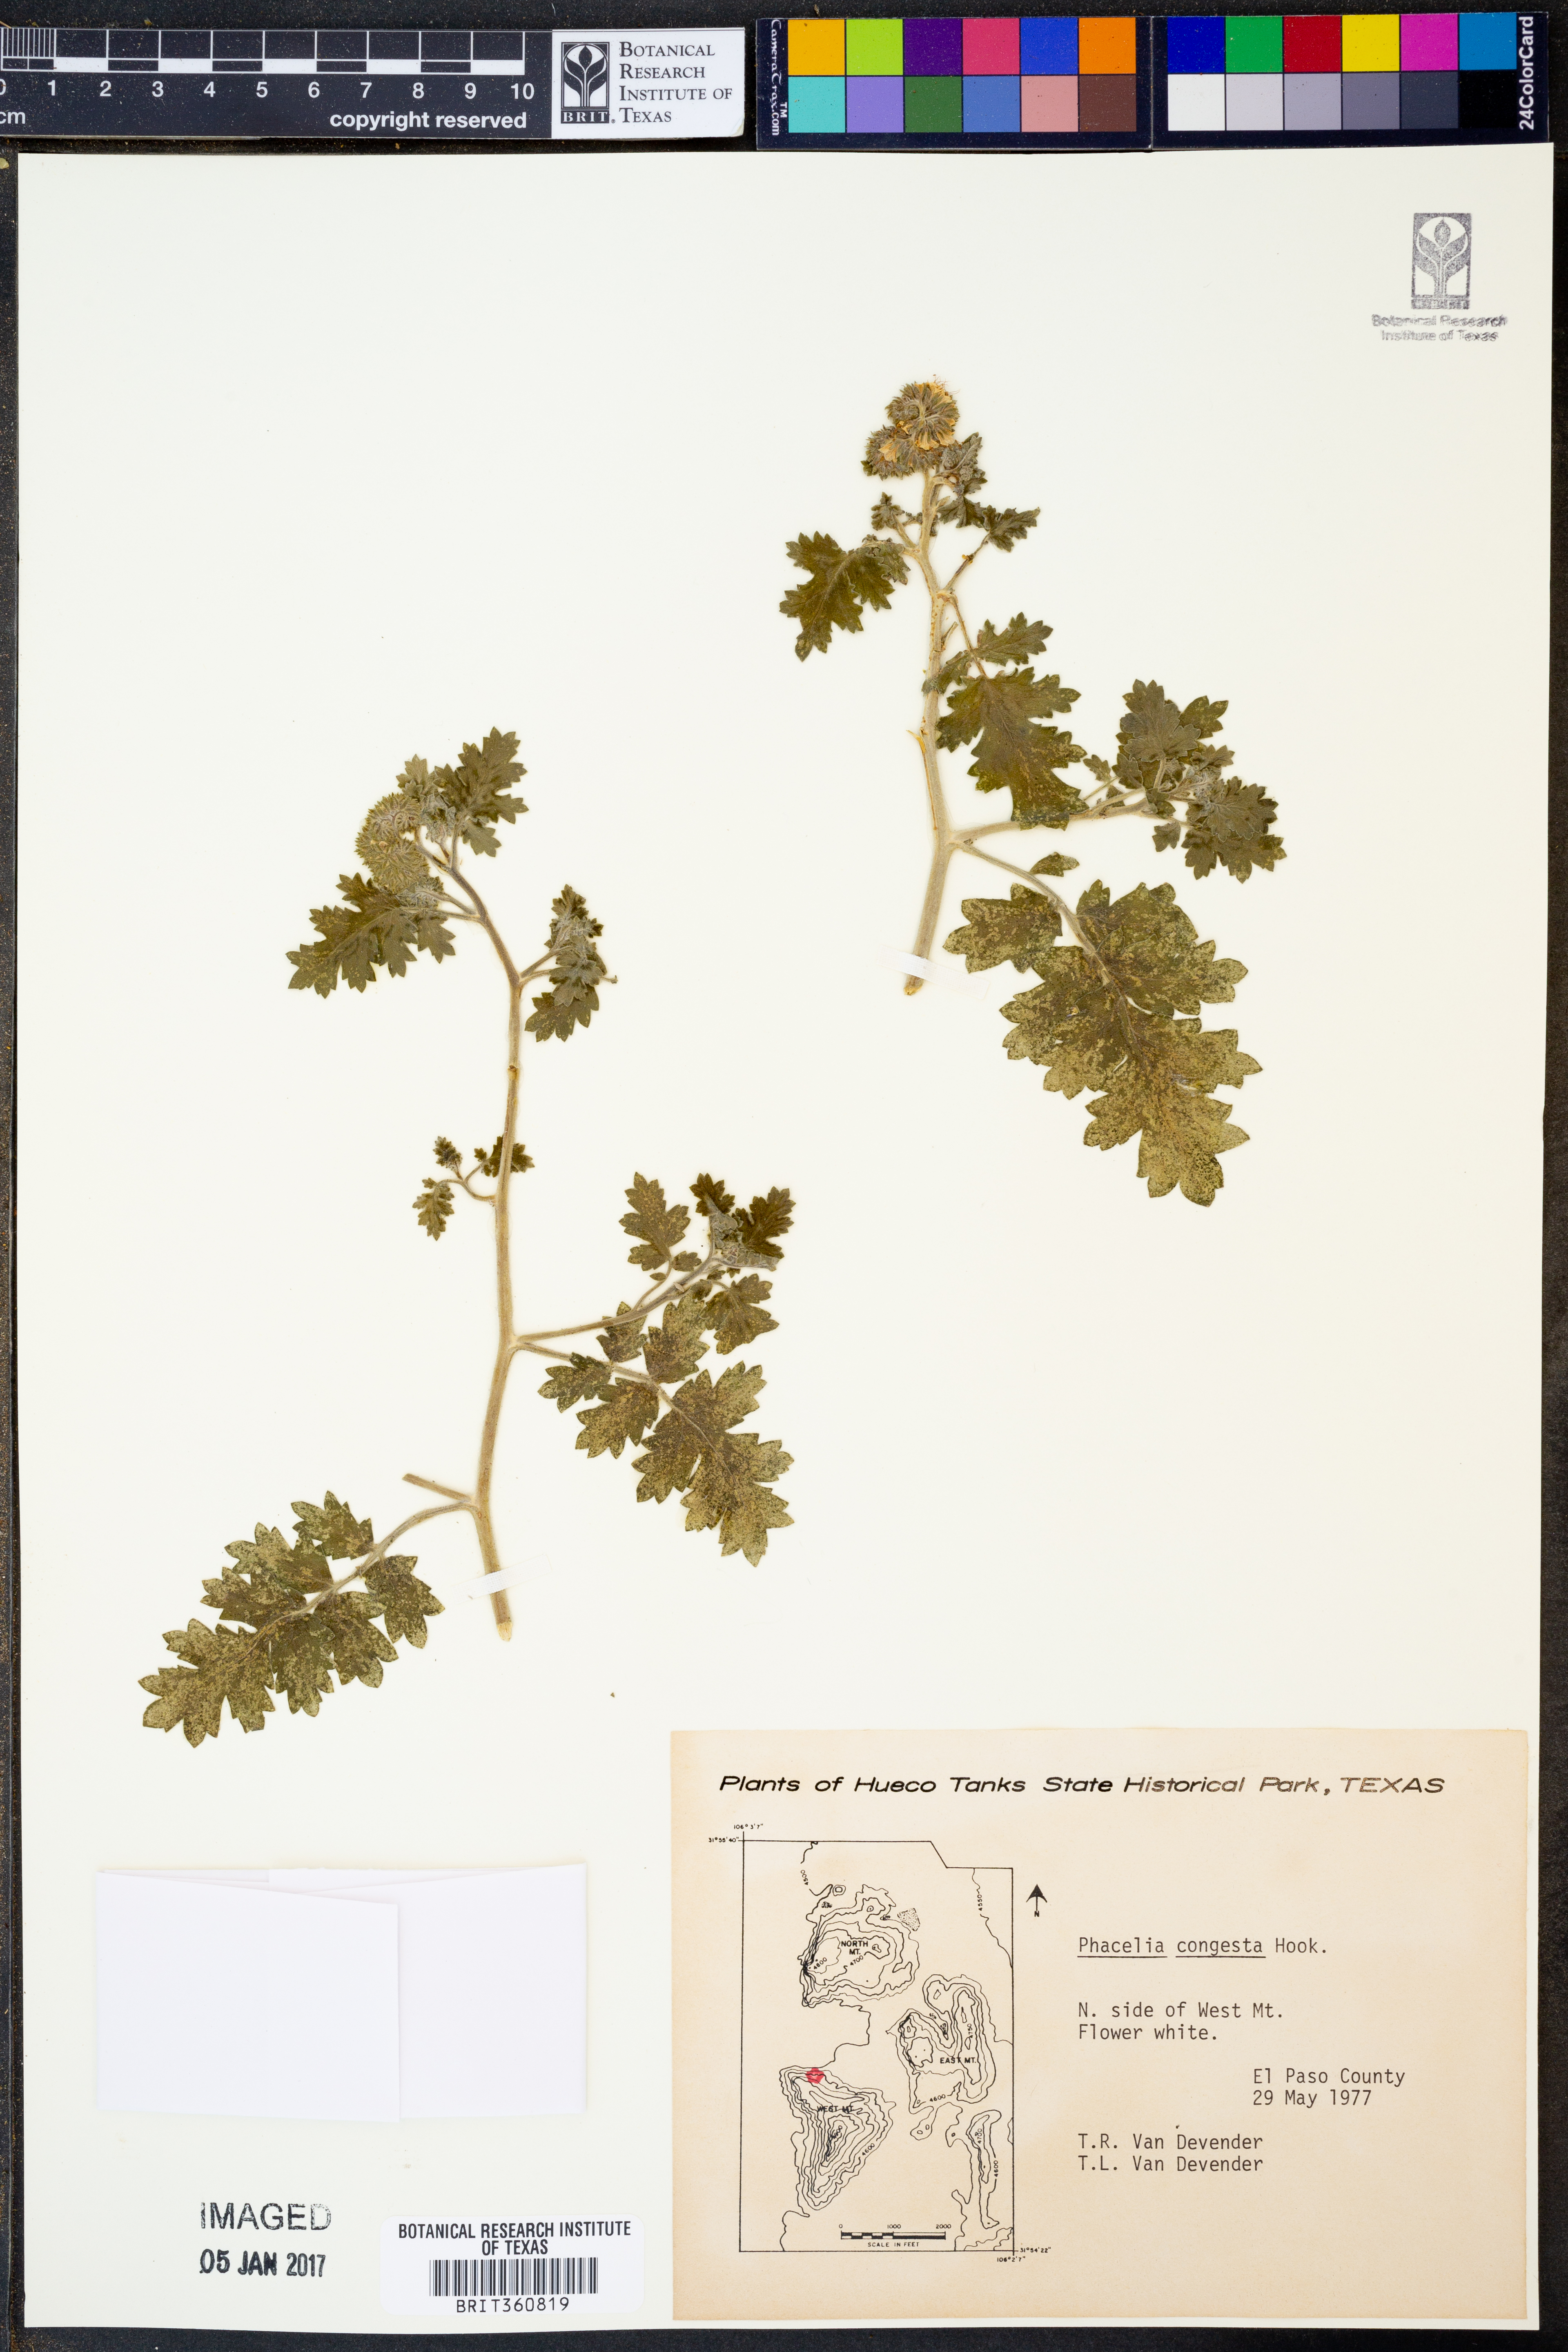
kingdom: Plantae
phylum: Tracheophyta
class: Magnoliopsida
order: Boraginales
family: Hydrophyllaceae
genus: Phacelia
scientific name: Phacelia congesta
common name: Blue curls
